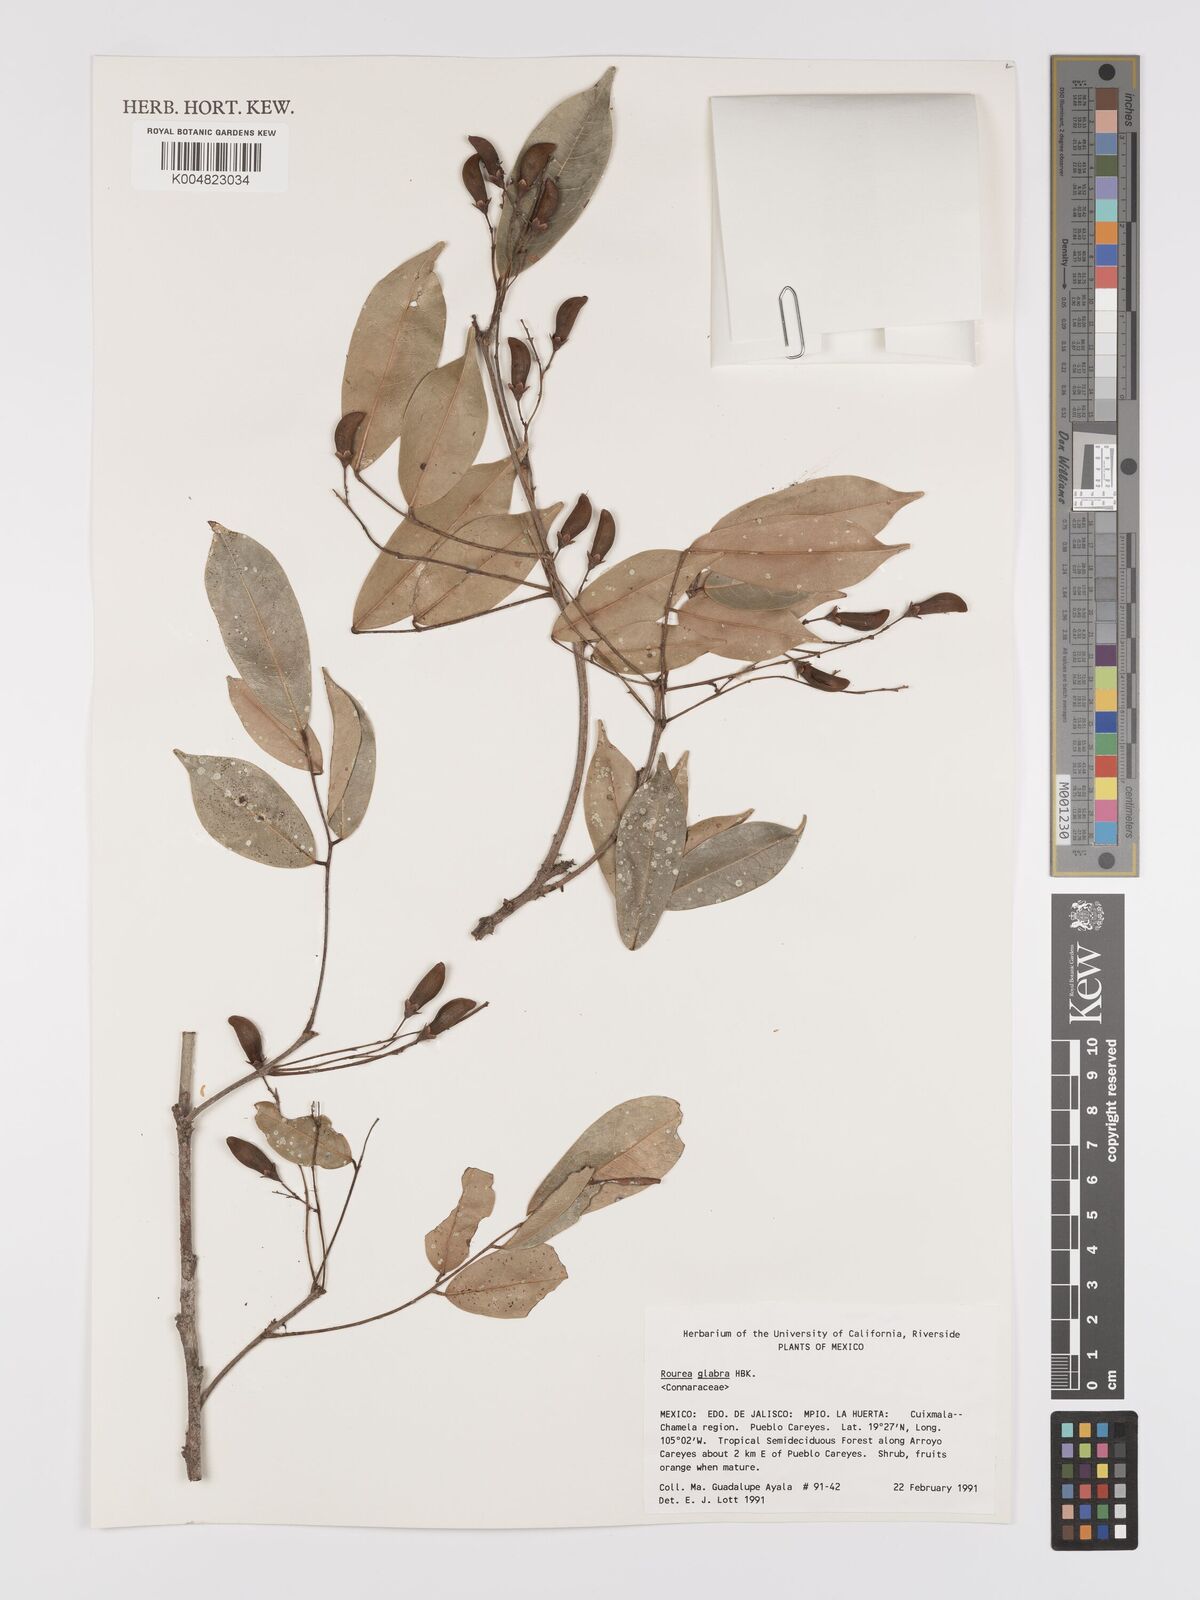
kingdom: Plantae
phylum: Tracheophyta
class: Magnoliopsida
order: Oxalidales
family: Connaraceae
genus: Rourea
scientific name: Rourea glabra
